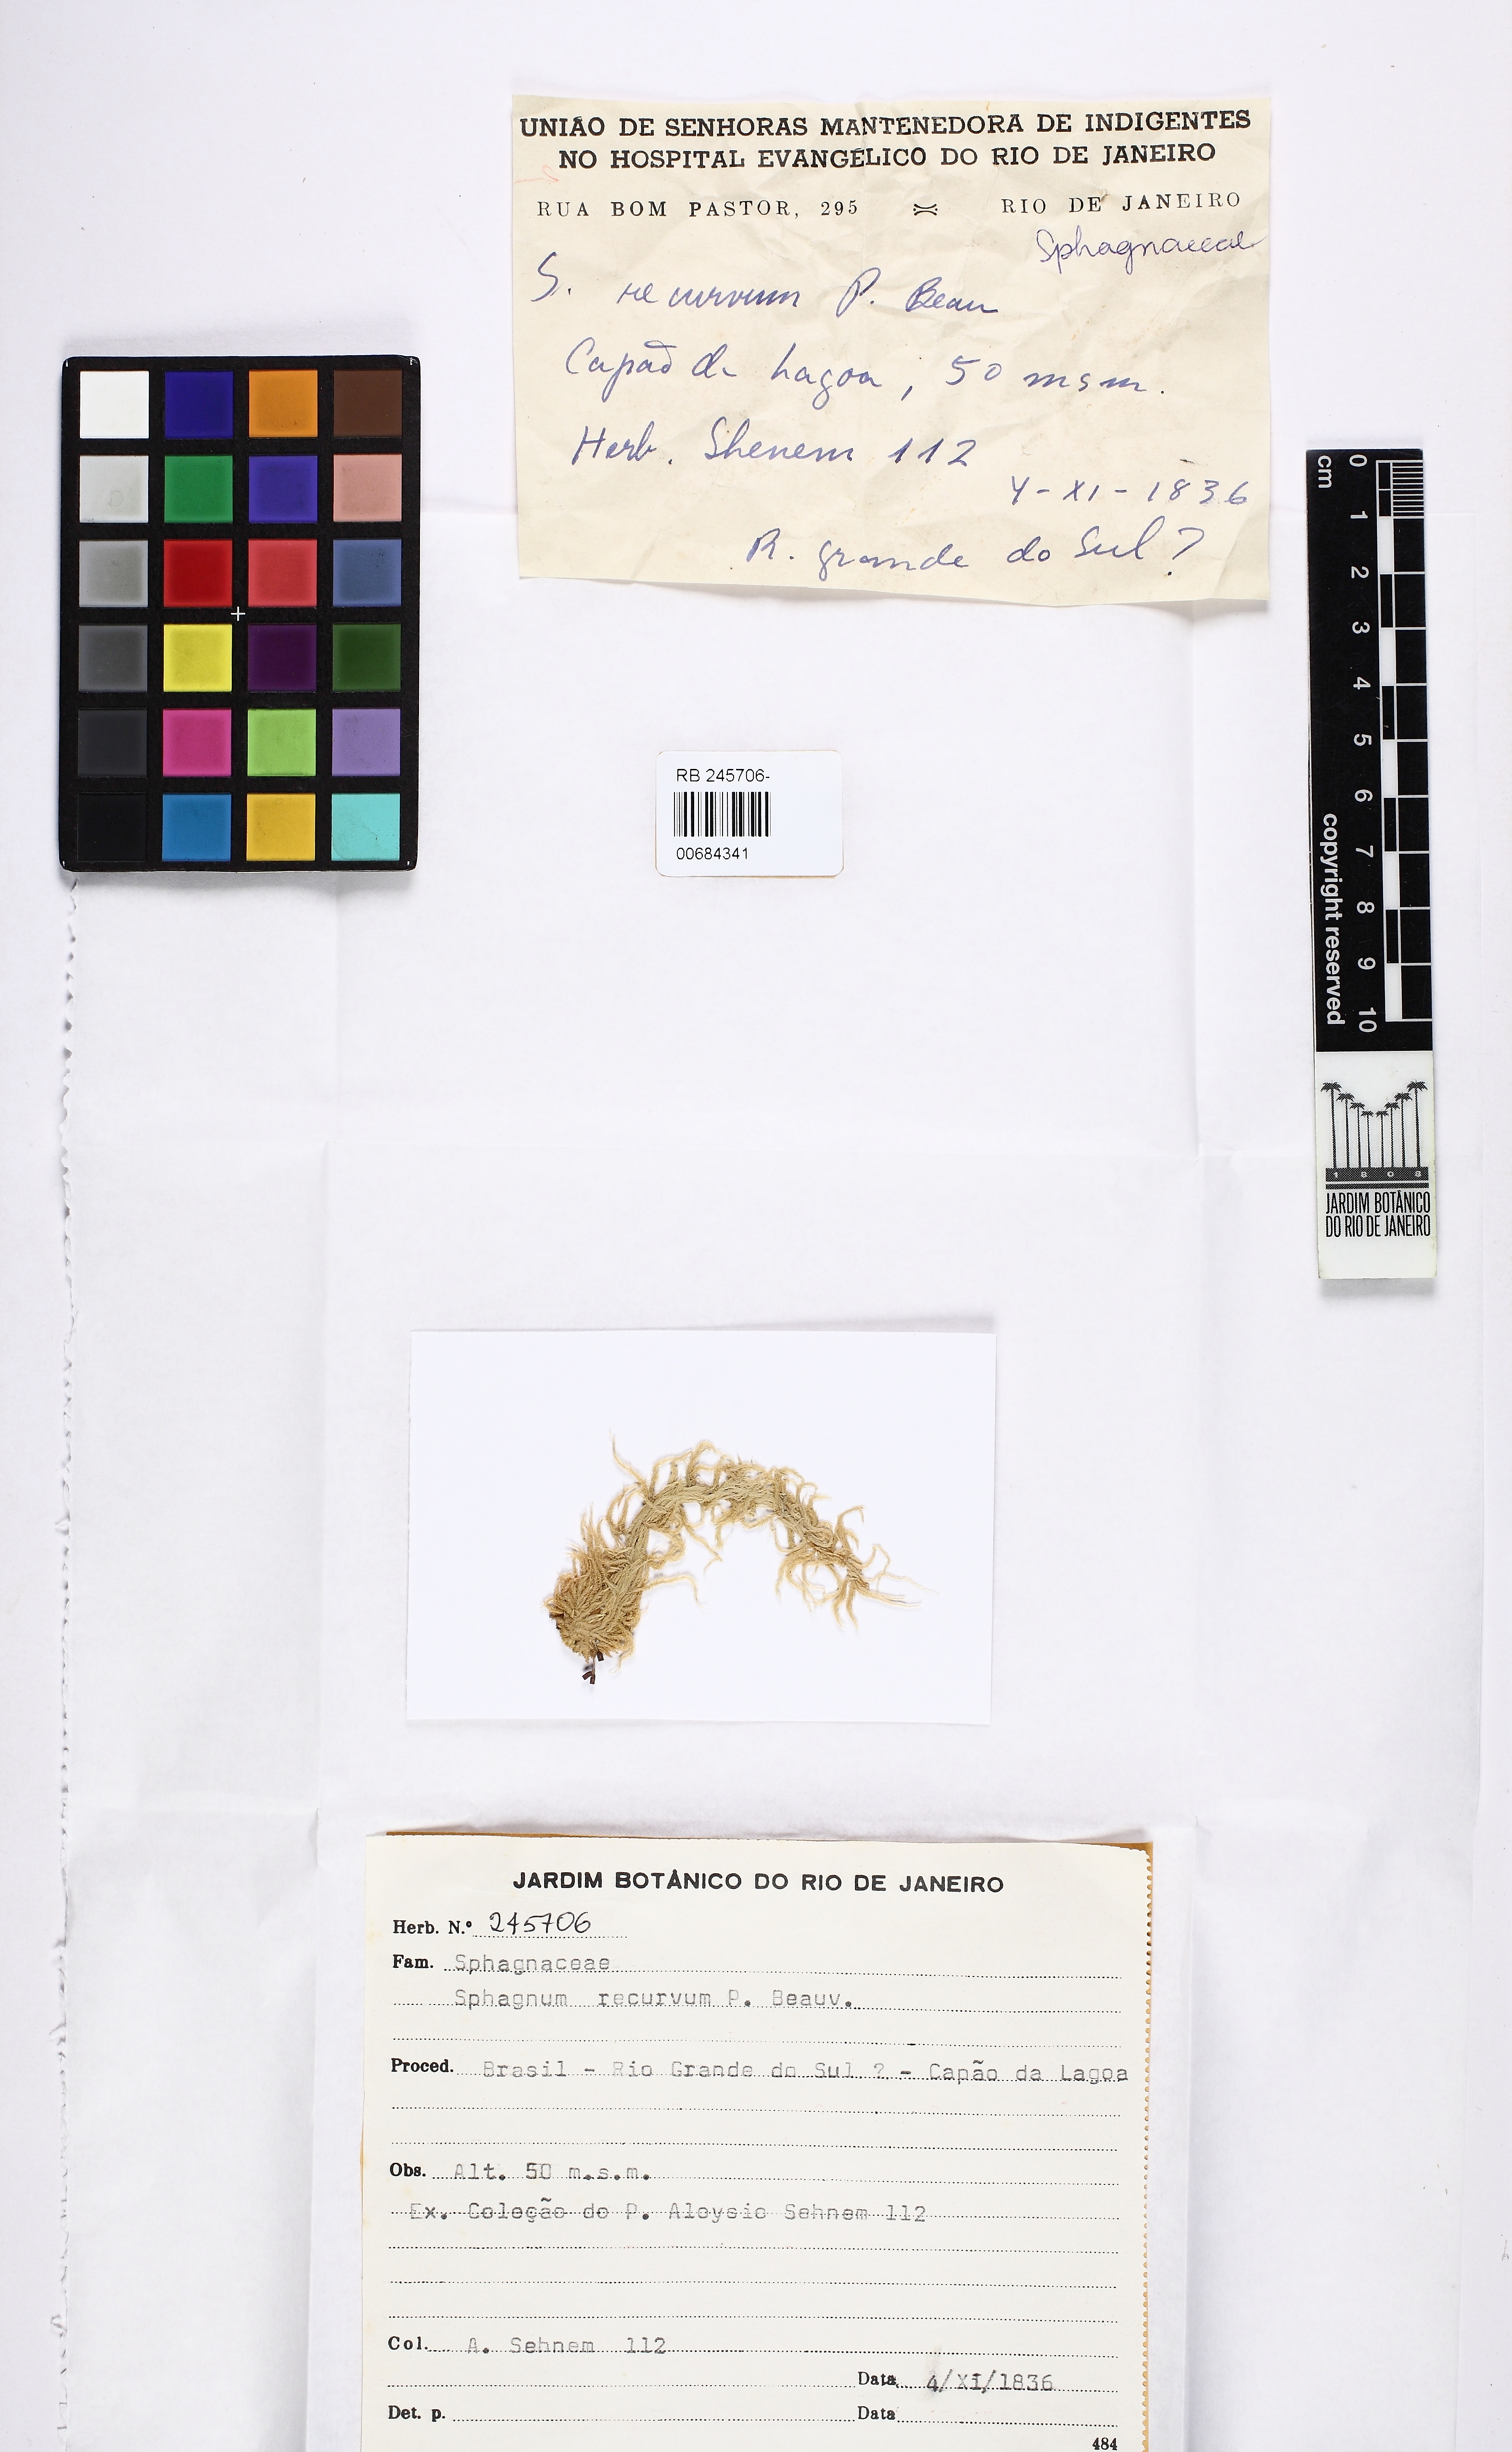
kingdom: Plantae
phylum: Bryophyta
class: Sphagnopsida
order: Sphagnales
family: Sphagnaceae
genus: Sphagnum
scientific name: Sphagnum recurvum
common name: Recurved peatmoss
